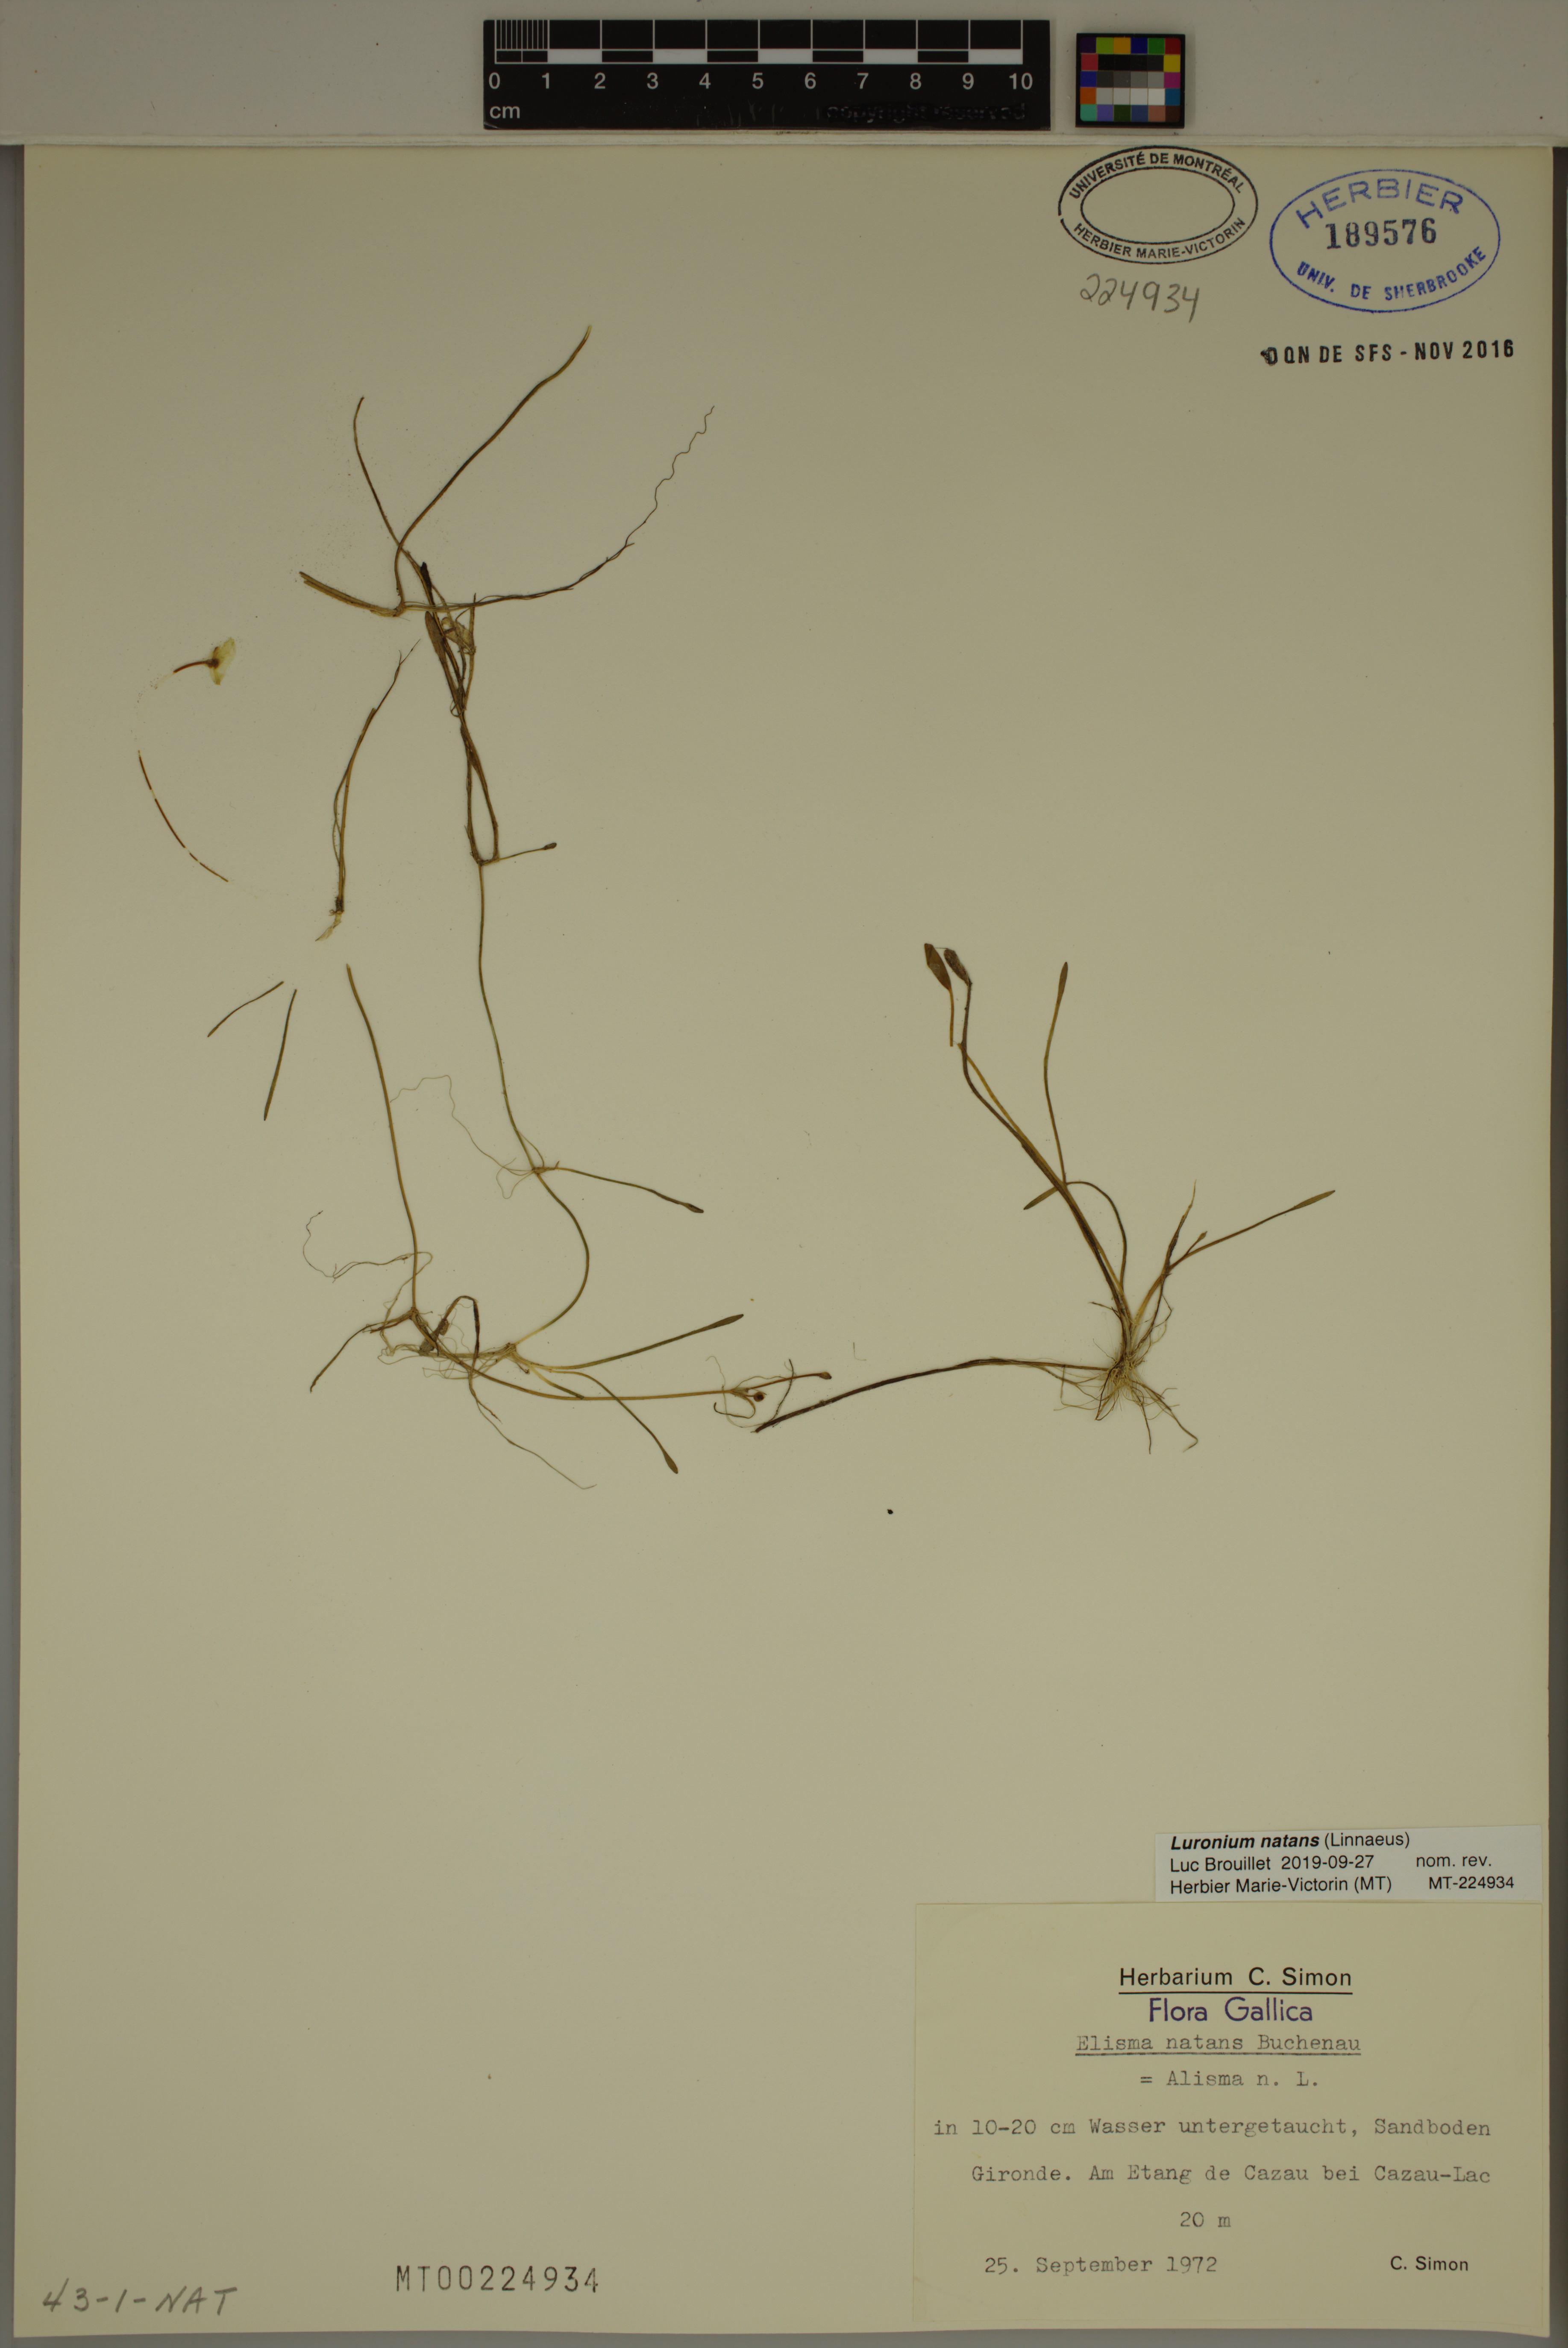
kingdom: Plantae
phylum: Tracheophyta
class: Liliopsida
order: Alismatales
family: Alismataceae
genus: Luronium
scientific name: Luronium natans
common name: Floating water-plantain
